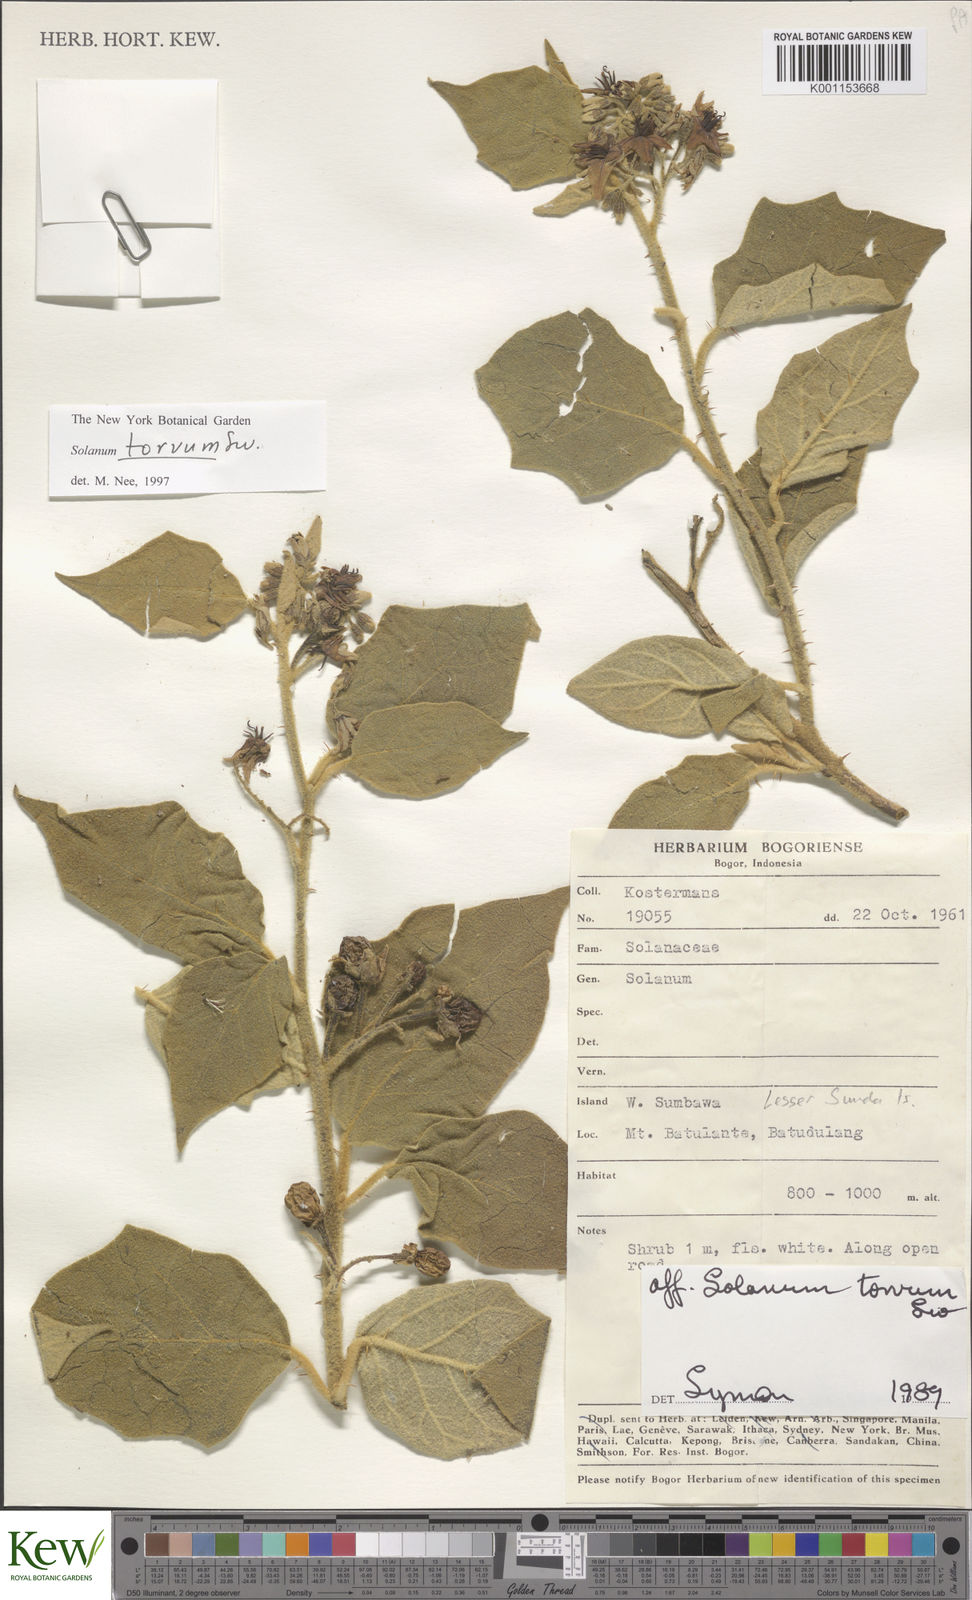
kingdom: Plantae
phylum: Tracheophyta
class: Magnoliopsida
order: Solanales
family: Solanaceae
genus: Solanum
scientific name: Solanum torvum
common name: Turkey berry
